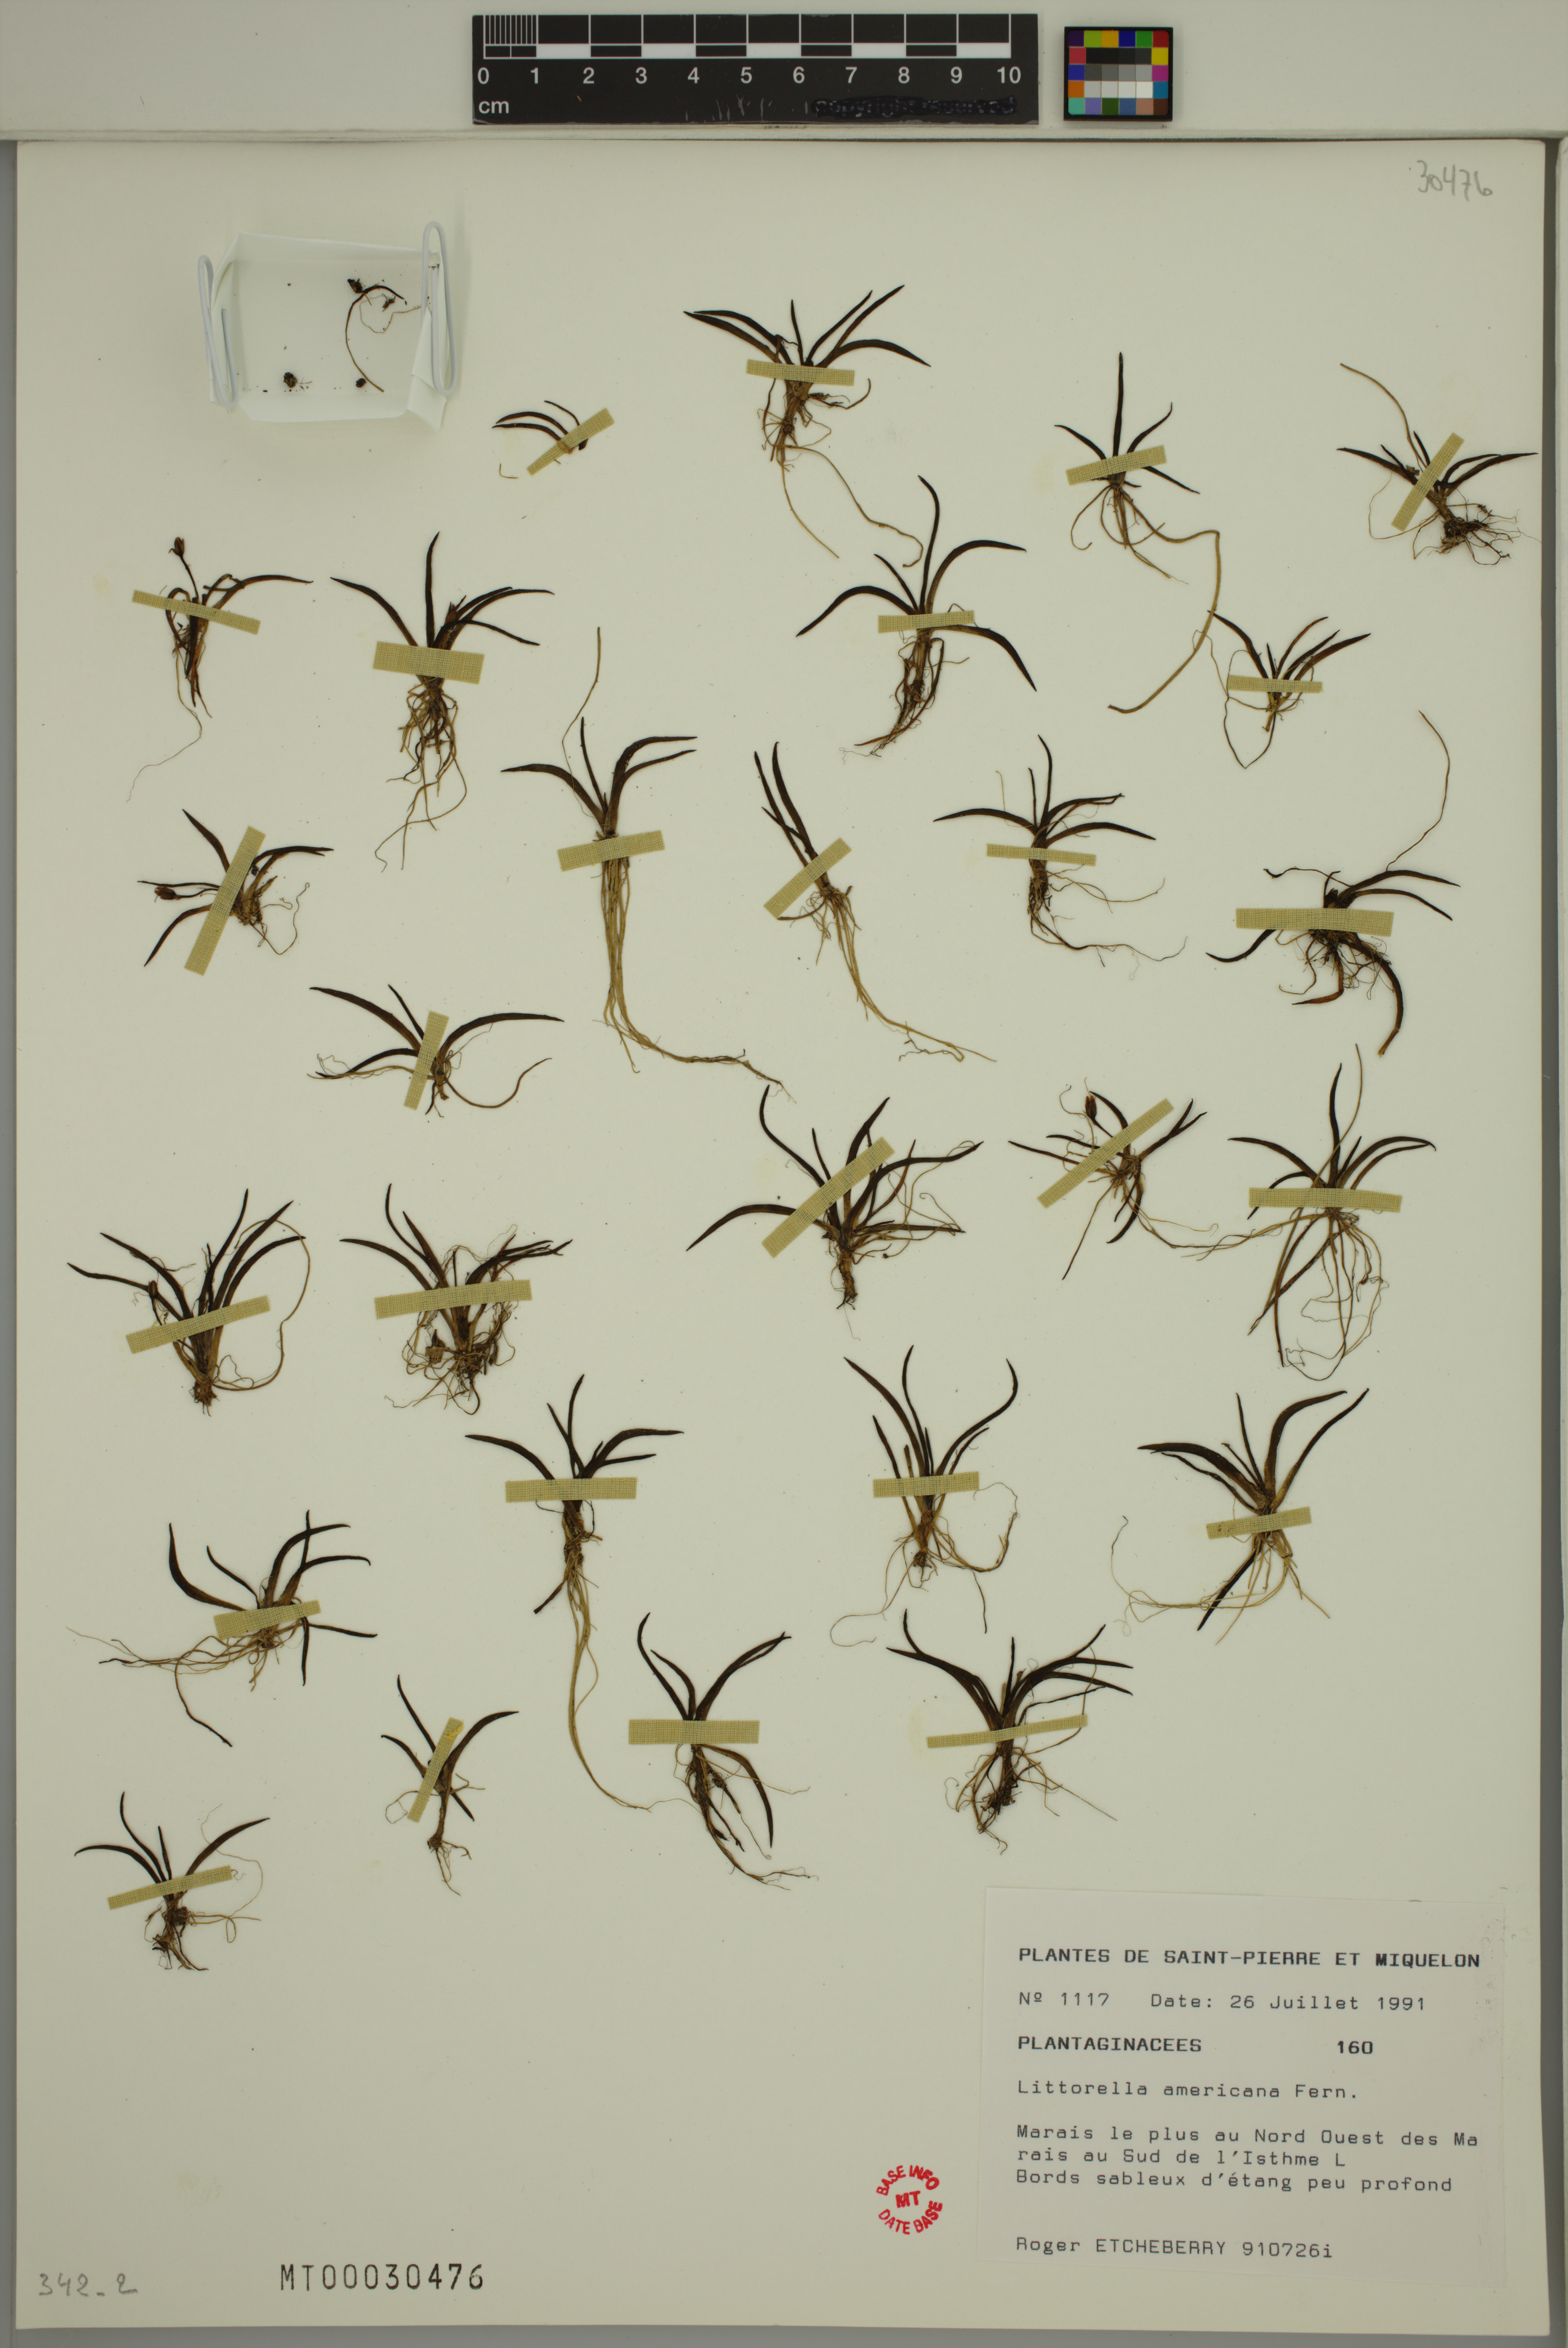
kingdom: Plantae
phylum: Tracheophyta
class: Magnoliopsida
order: Lamiales
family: Plantaginaceae
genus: Littorella
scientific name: Littorella americana
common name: American littorella
